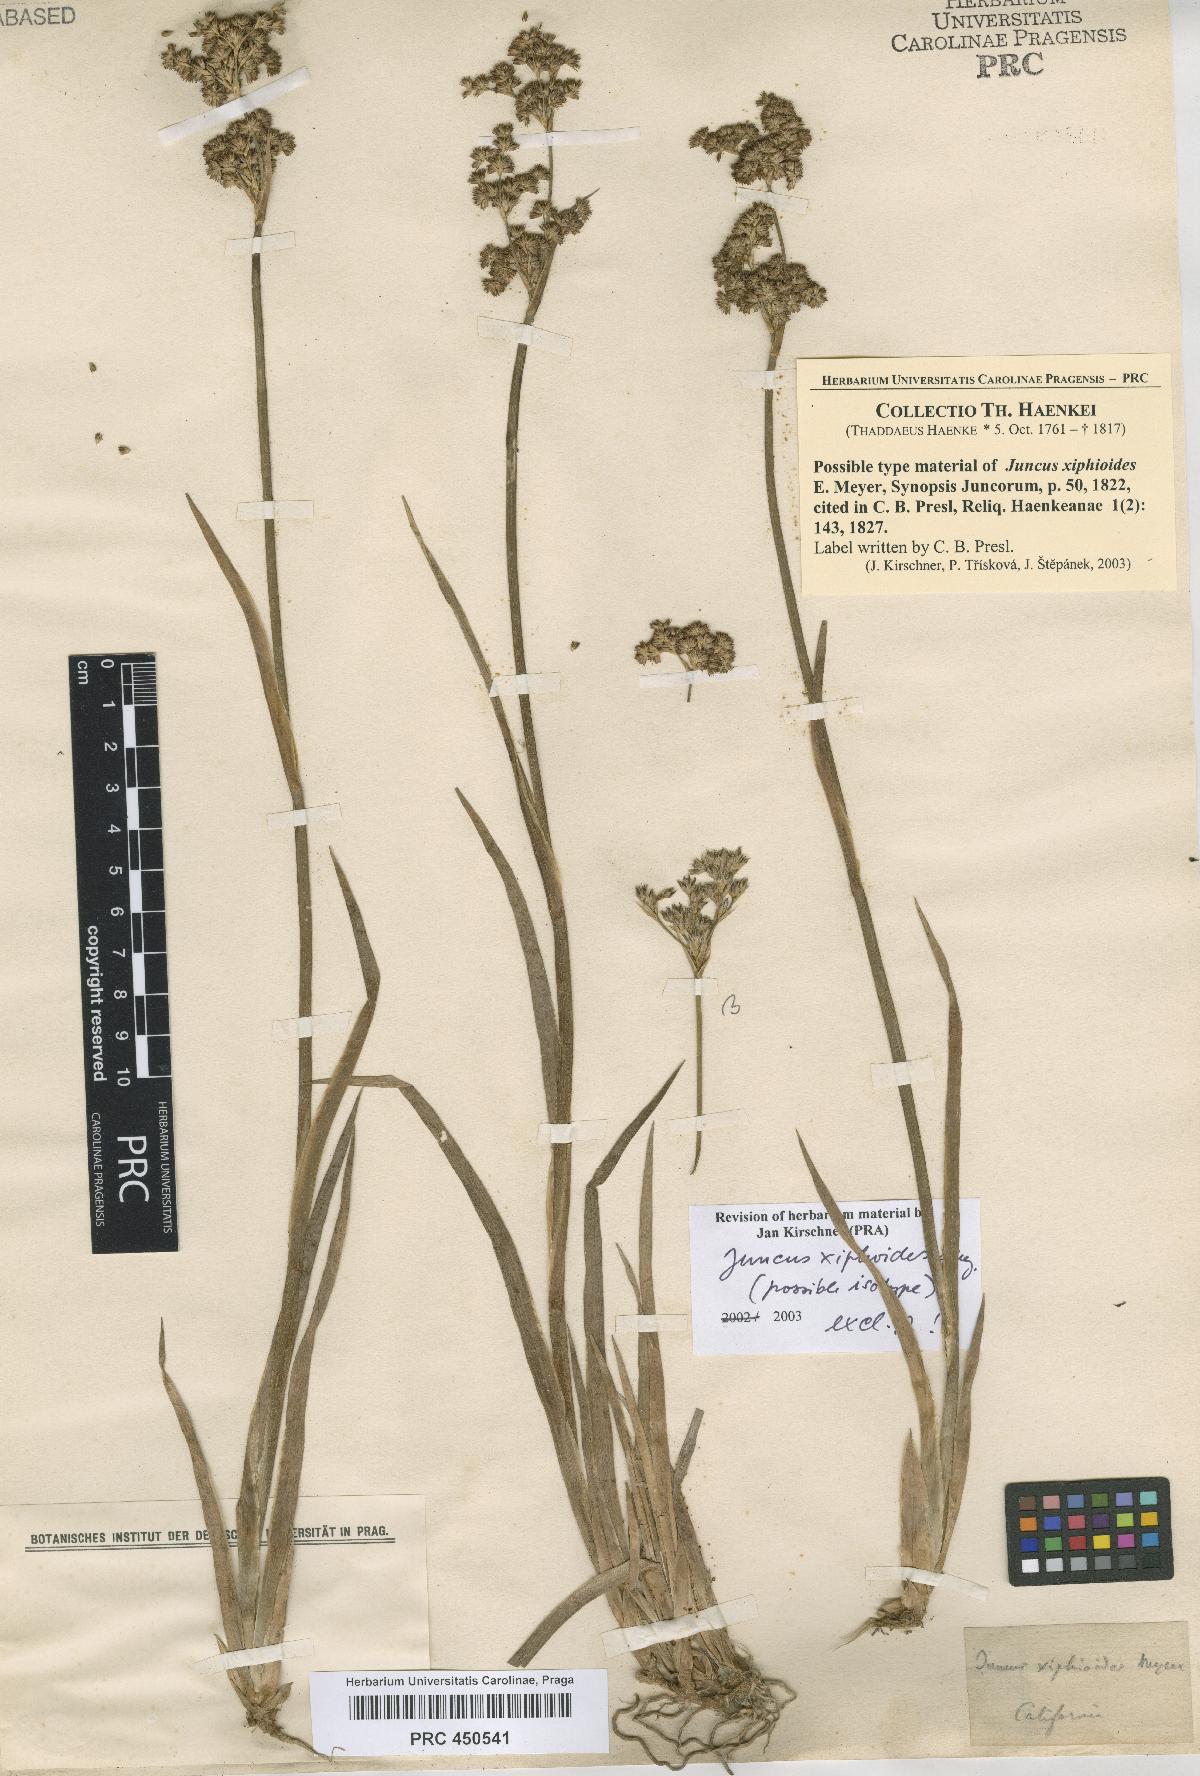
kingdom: Plantae
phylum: Tracheophyta
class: Liliopsida
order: Poales
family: Juncaceae
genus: Juncus
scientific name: Juncus xiphioides
